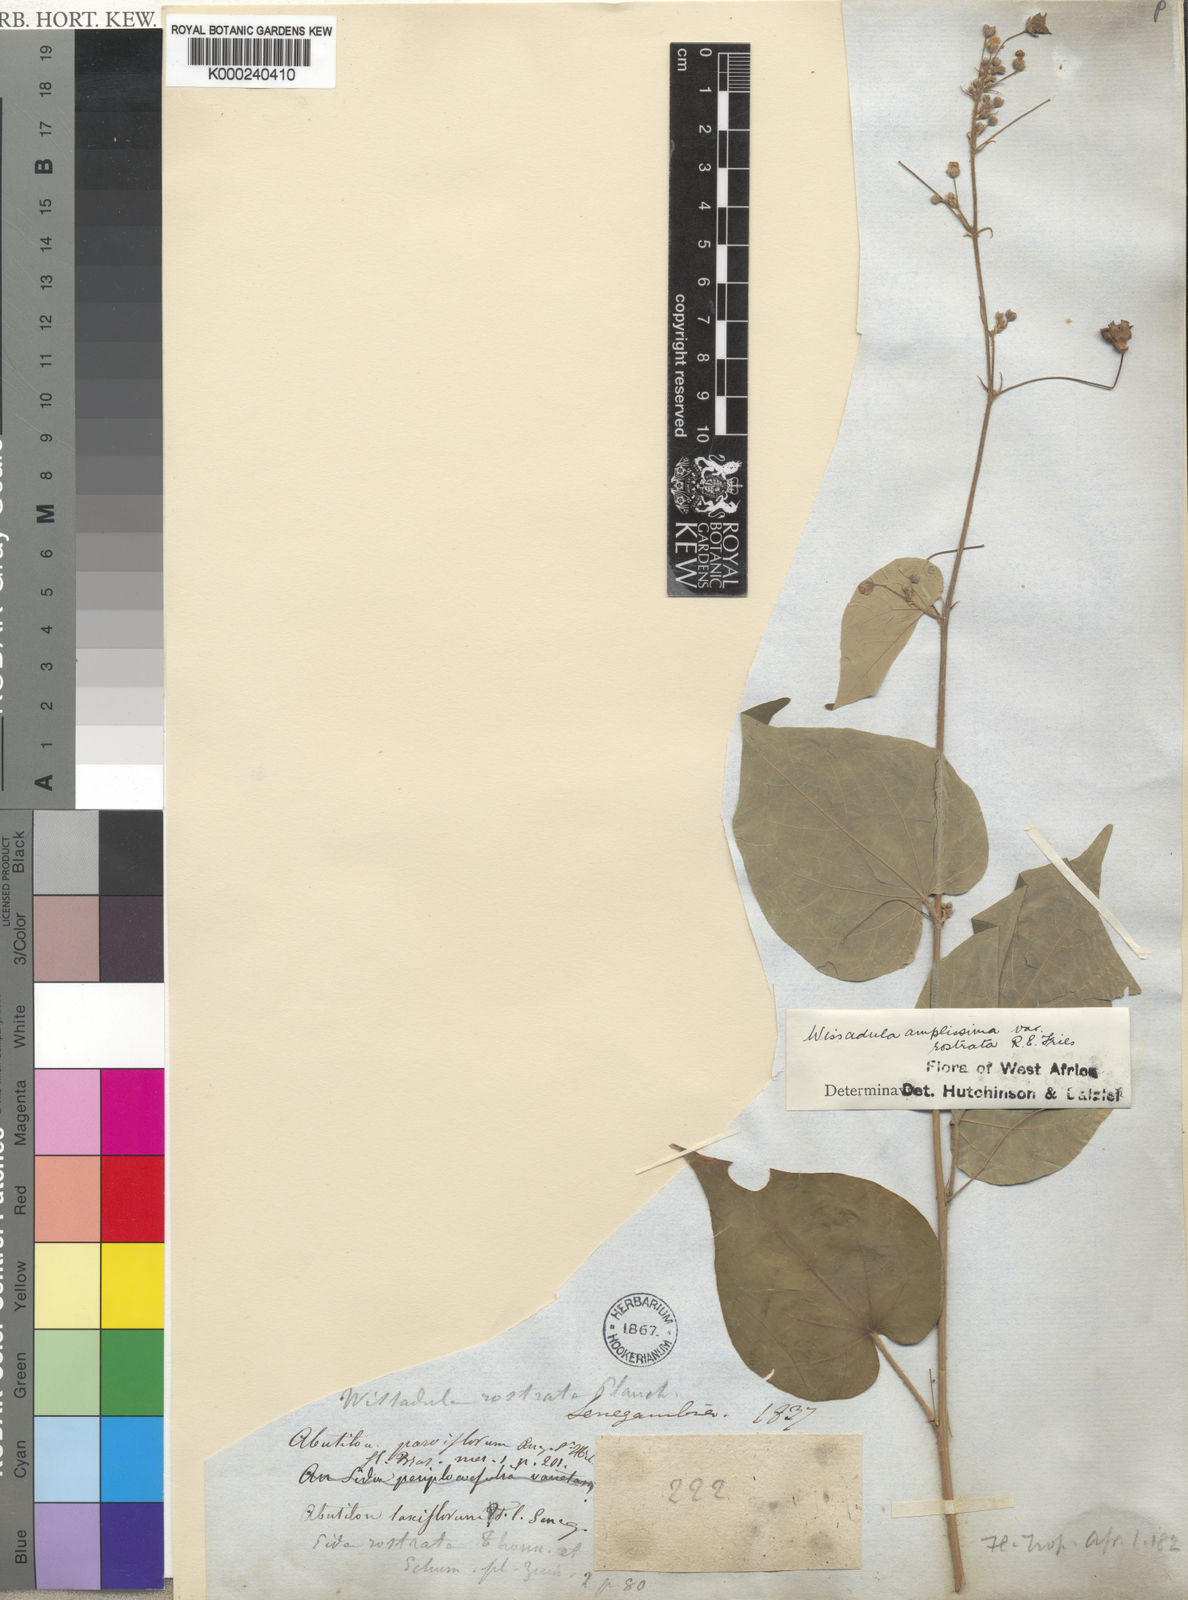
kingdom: Plantae
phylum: Tracheophyta
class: Magnoliopsida
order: Malvales
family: Malvaceae
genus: Wissadula
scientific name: Wissadula amplissima
